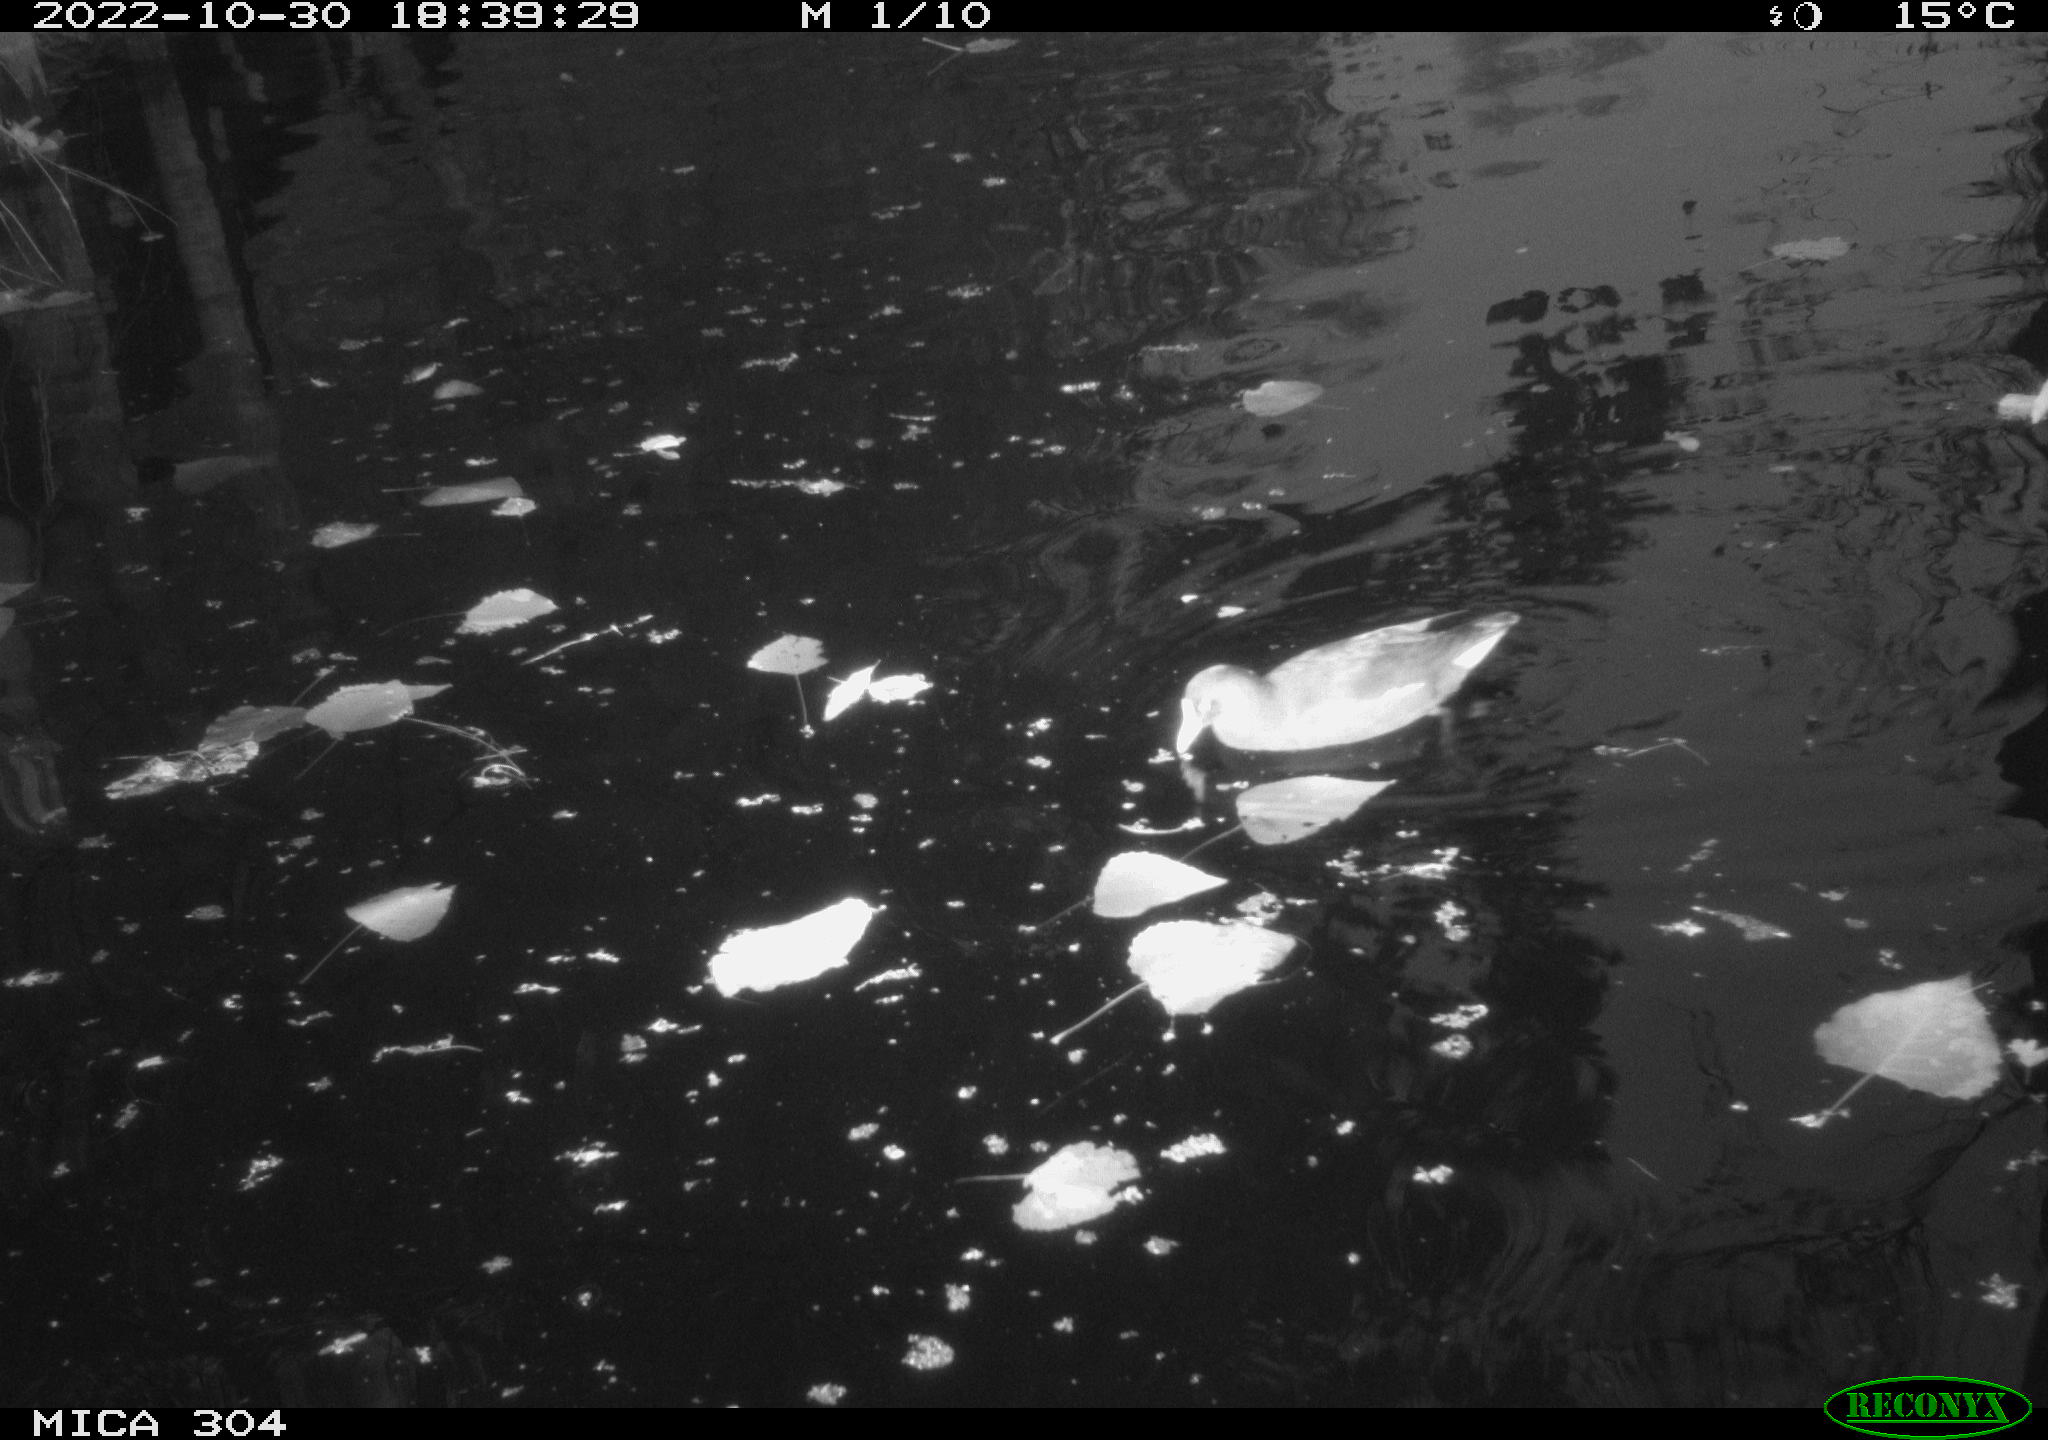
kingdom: Animalia
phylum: Chordata
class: Aves
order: Gruiformes
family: Rallidae
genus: Gallinula
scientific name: Gallinula chloropus
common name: Common moorhen
